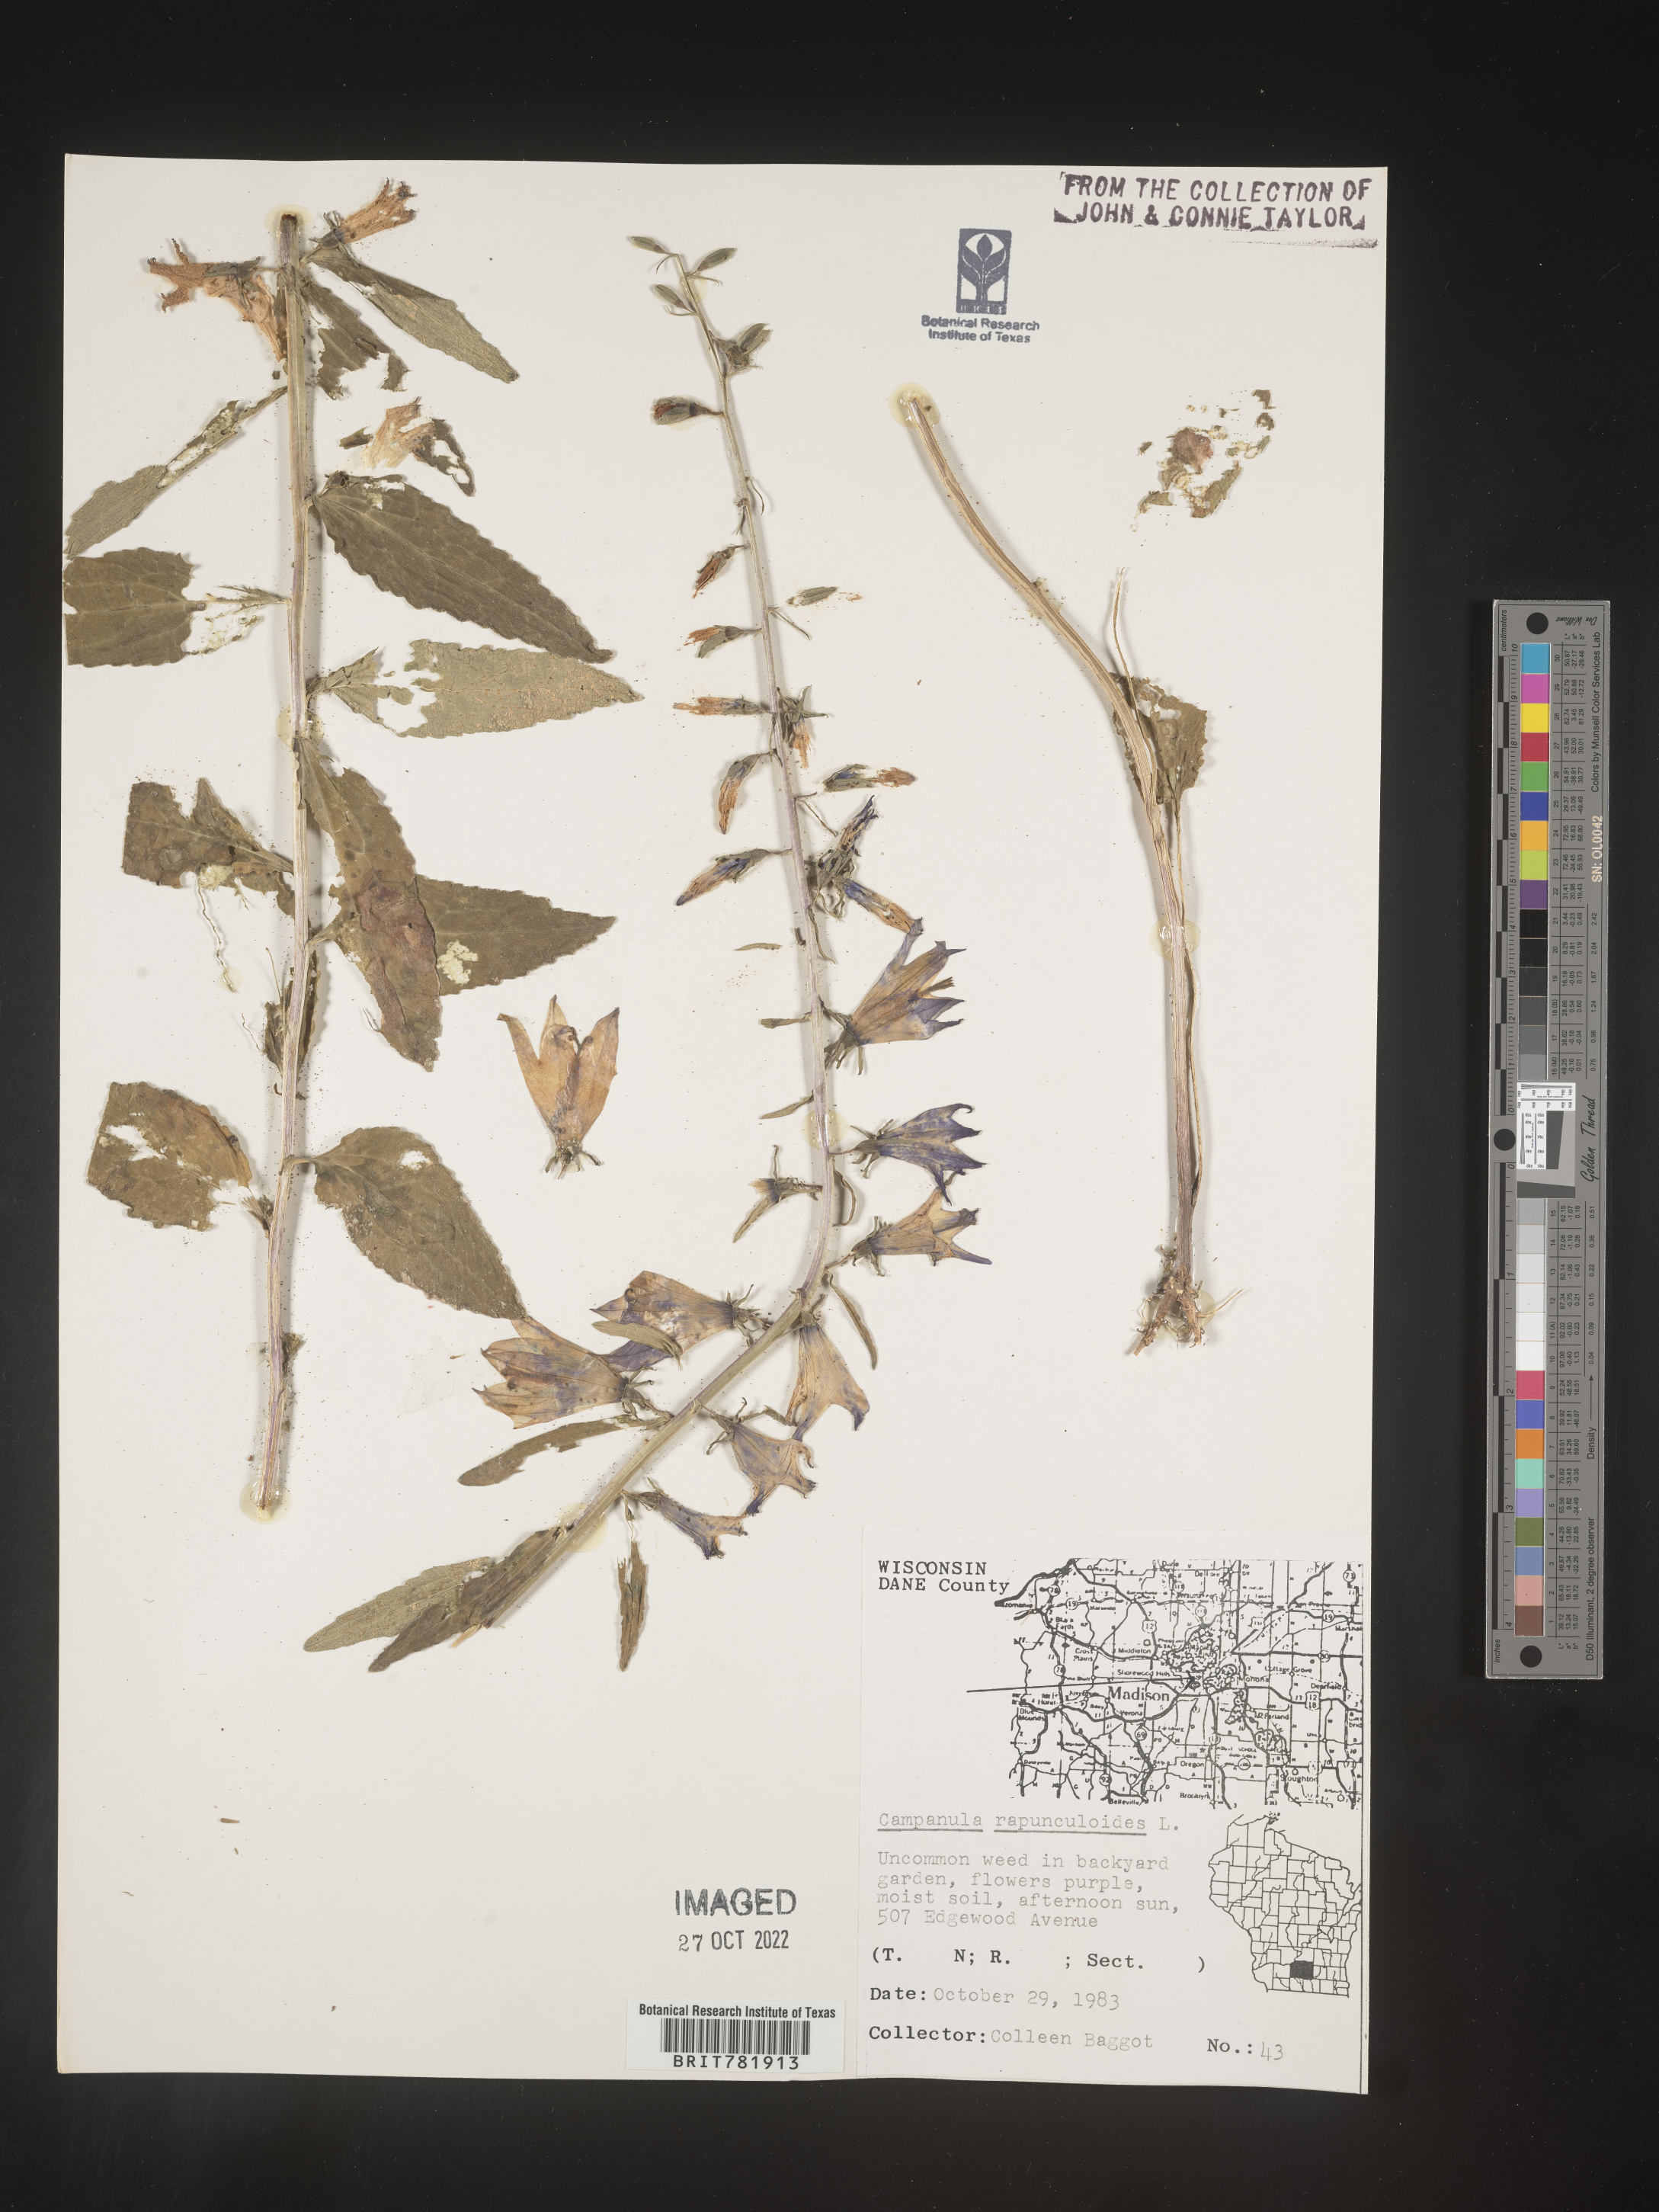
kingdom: Plantae
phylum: Tracheophyta
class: Magnoliopsida
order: Asterales
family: Campanulaceae
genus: Campanula
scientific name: Campanula
